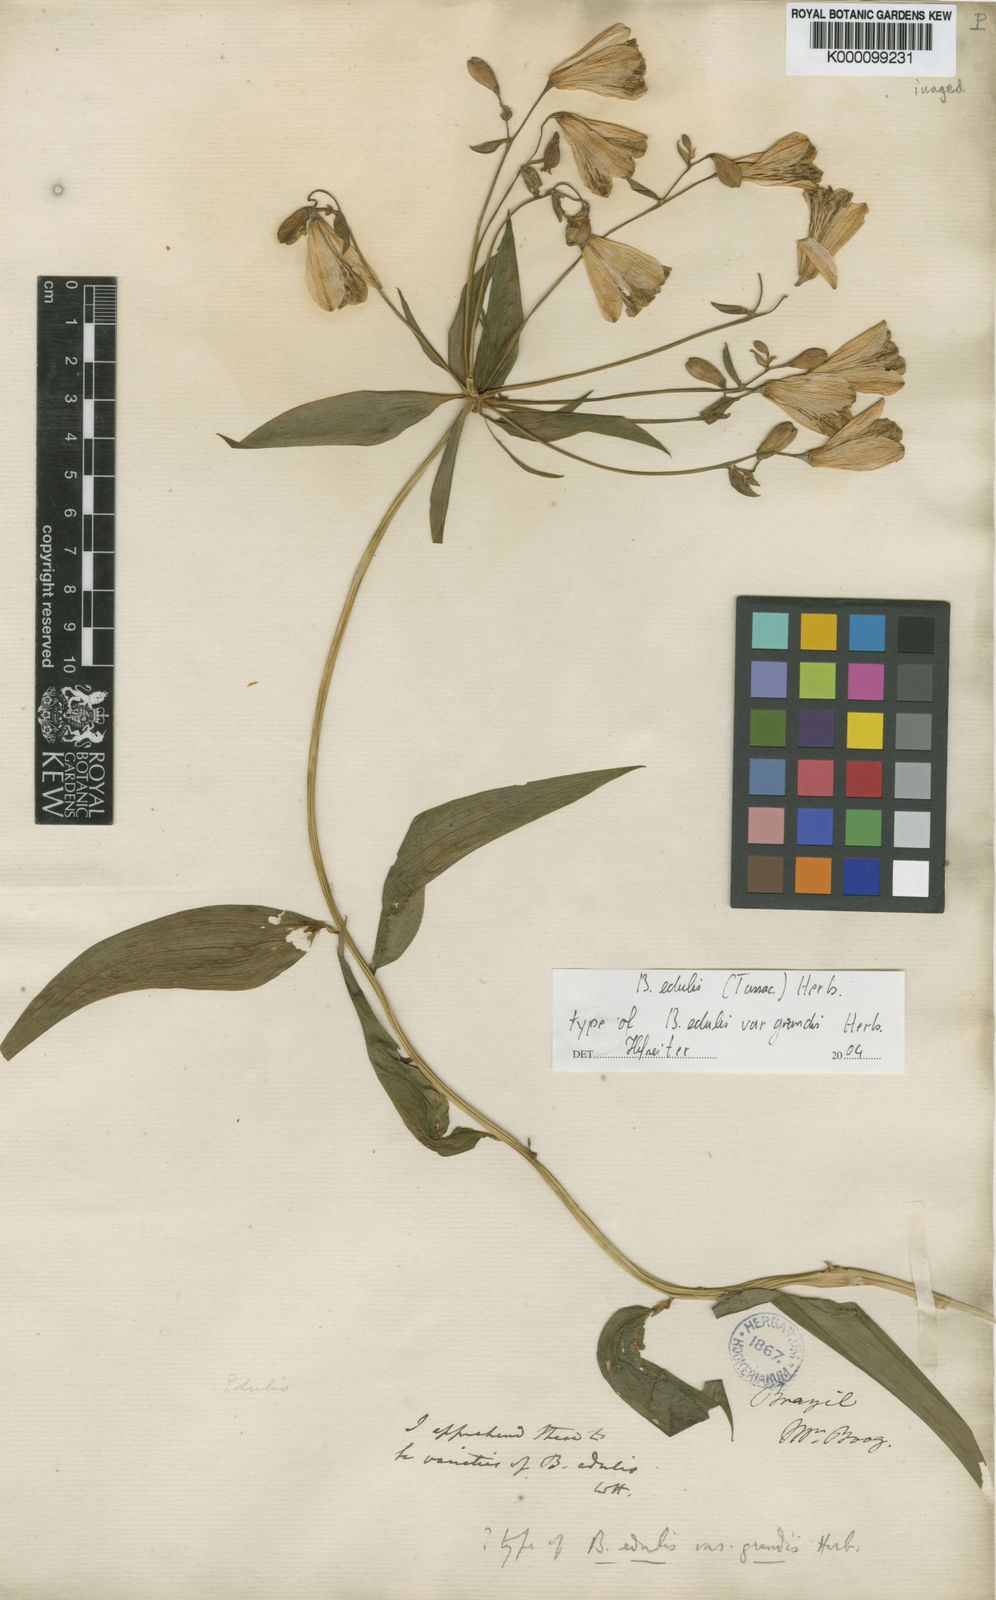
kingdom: Plantae
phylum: Tracheophyta
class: Liliopsida
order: Liliales
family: Alstroemeriaceae
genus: Bomarea
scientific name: Bomarea edulis
